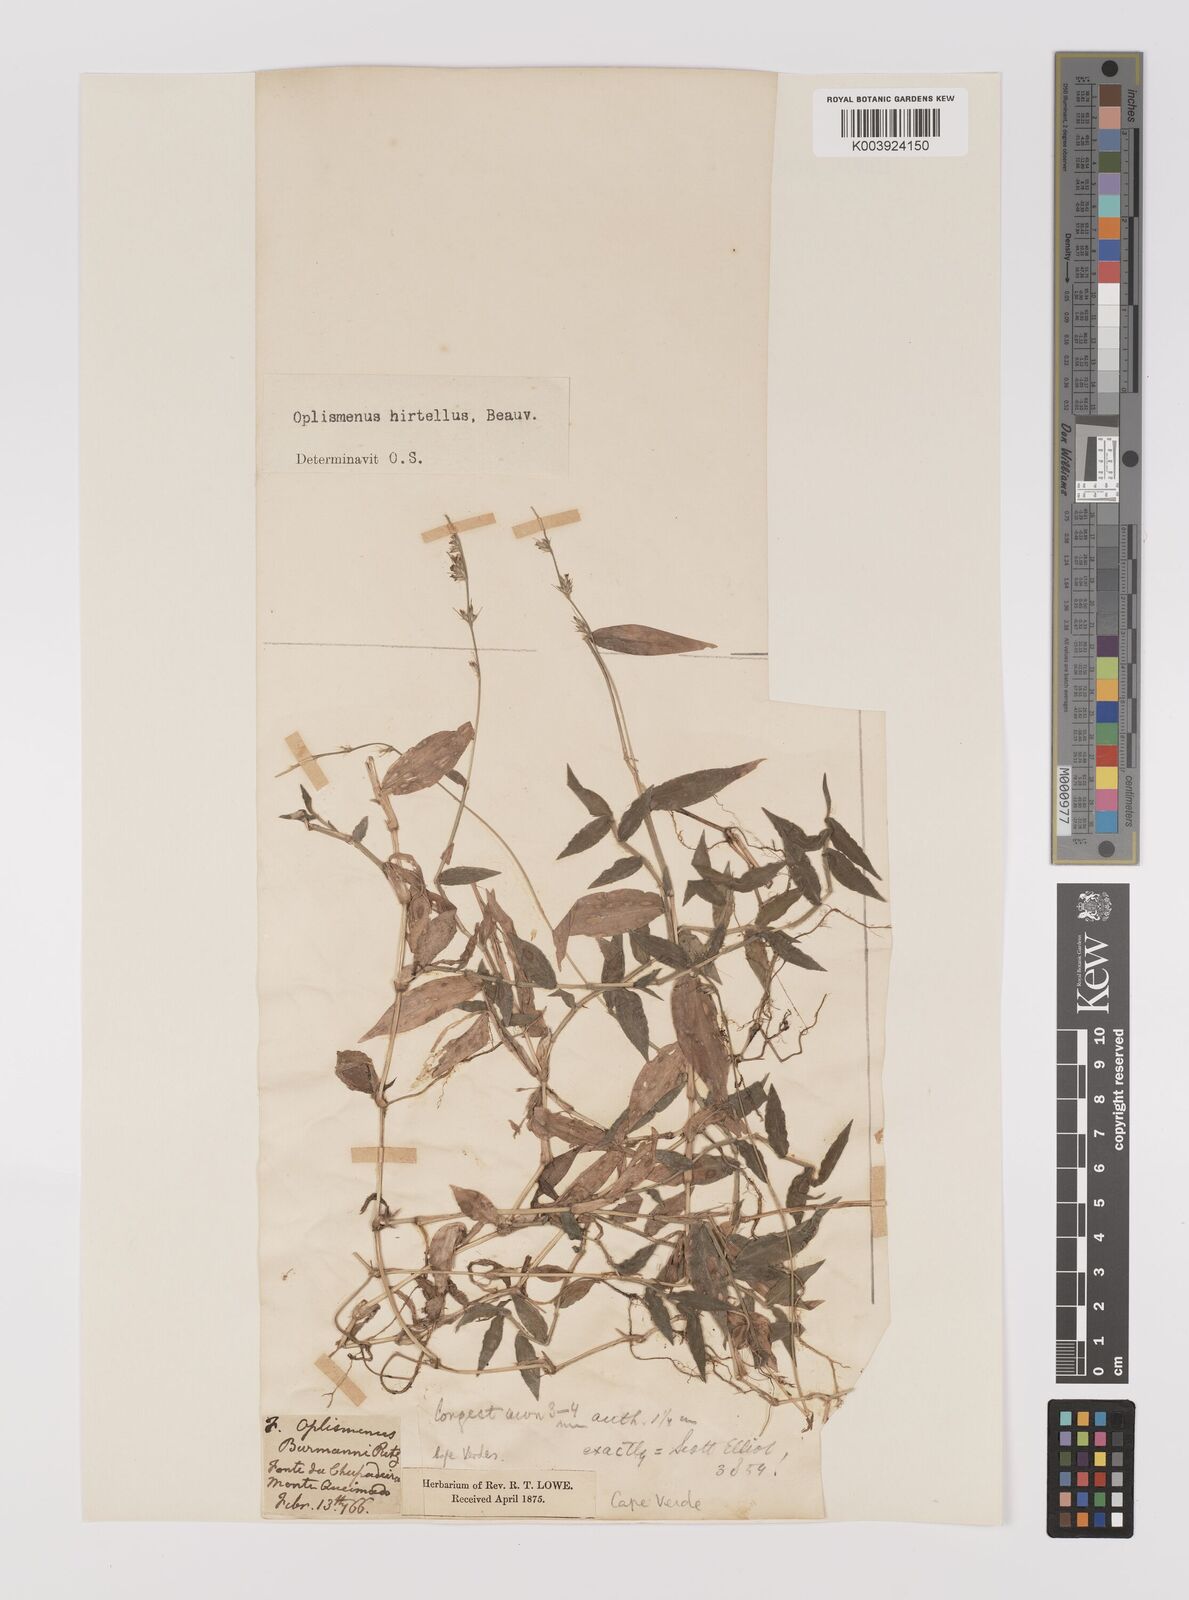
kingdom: Plantae
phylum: Tracheophyta
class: Liliopsida
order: Poales
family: Poaceae
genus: Oplismenus
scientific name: Oplismenus hirtellus
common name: Basketgrass
